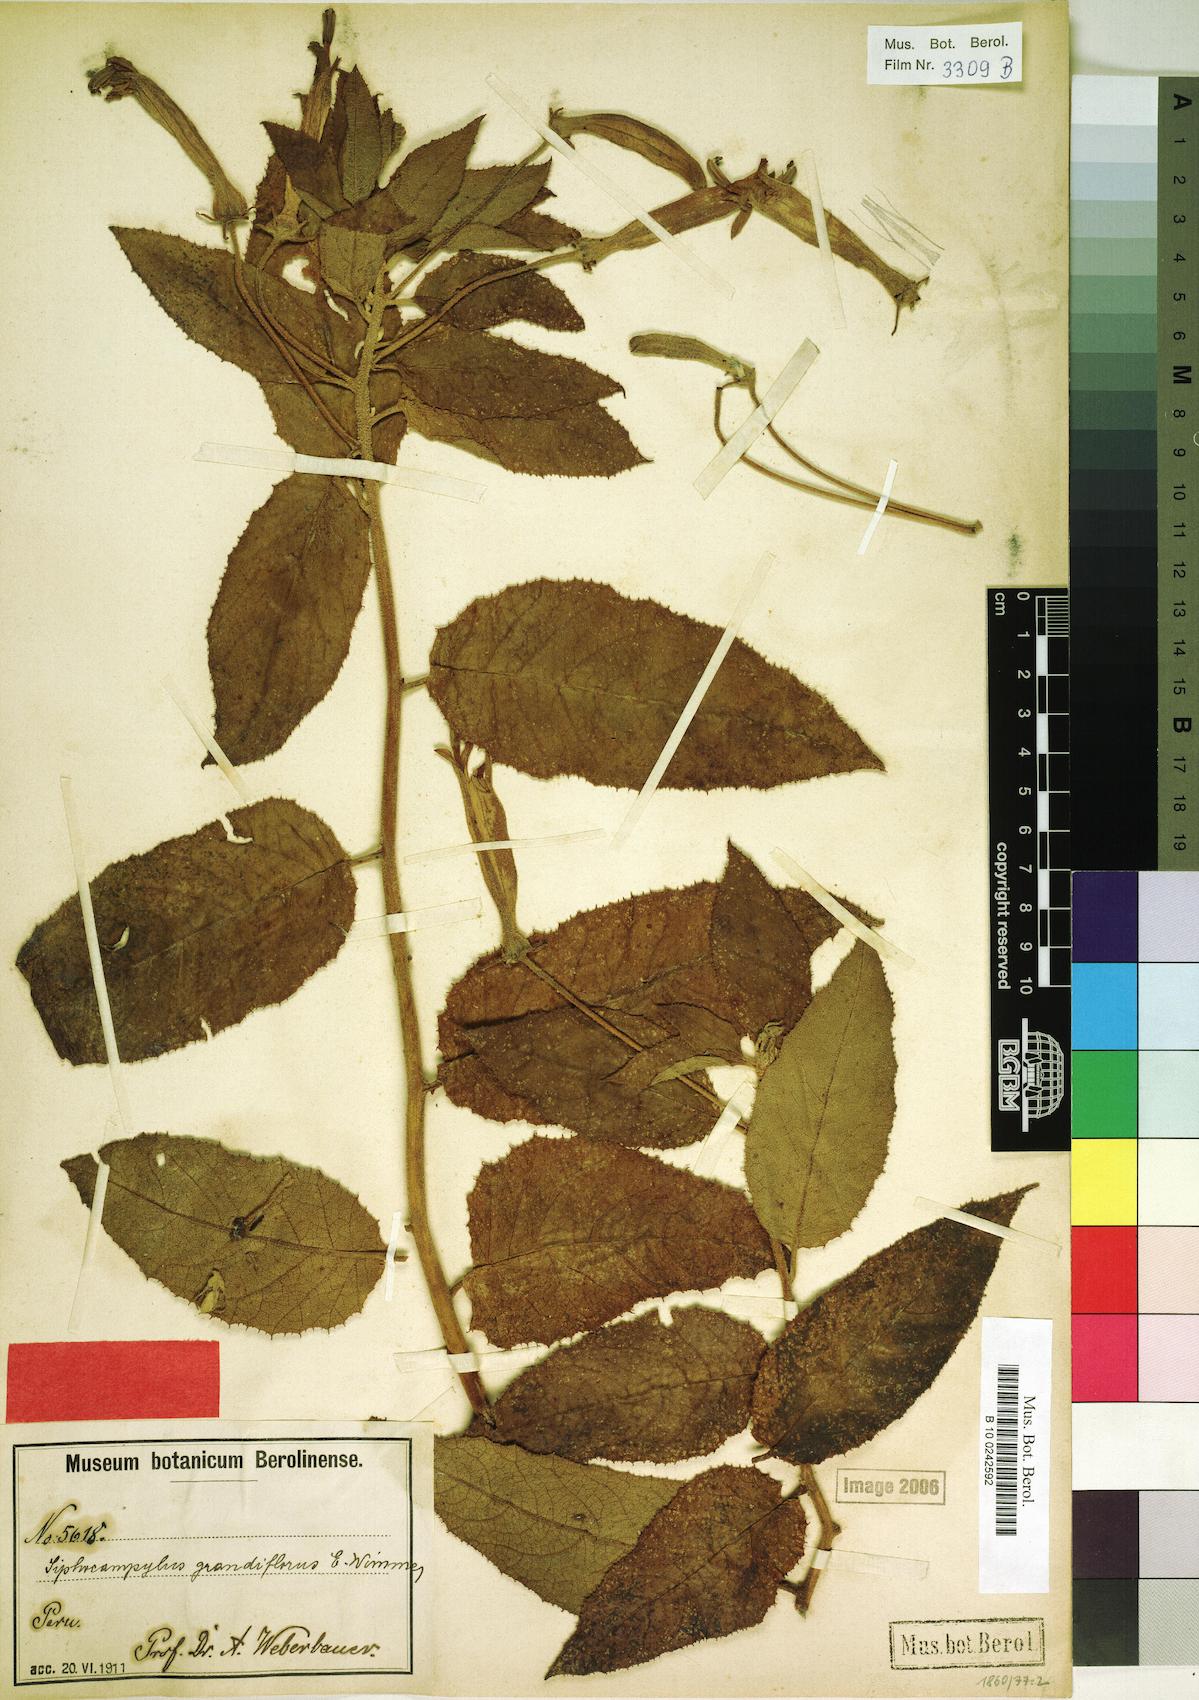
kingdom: Plantae
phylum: Tracheophyta
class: Magnoliopsida
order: Asterales
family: Campanulaceae
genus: Siphocampylus
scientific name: Siphocampylus grandiflorus
